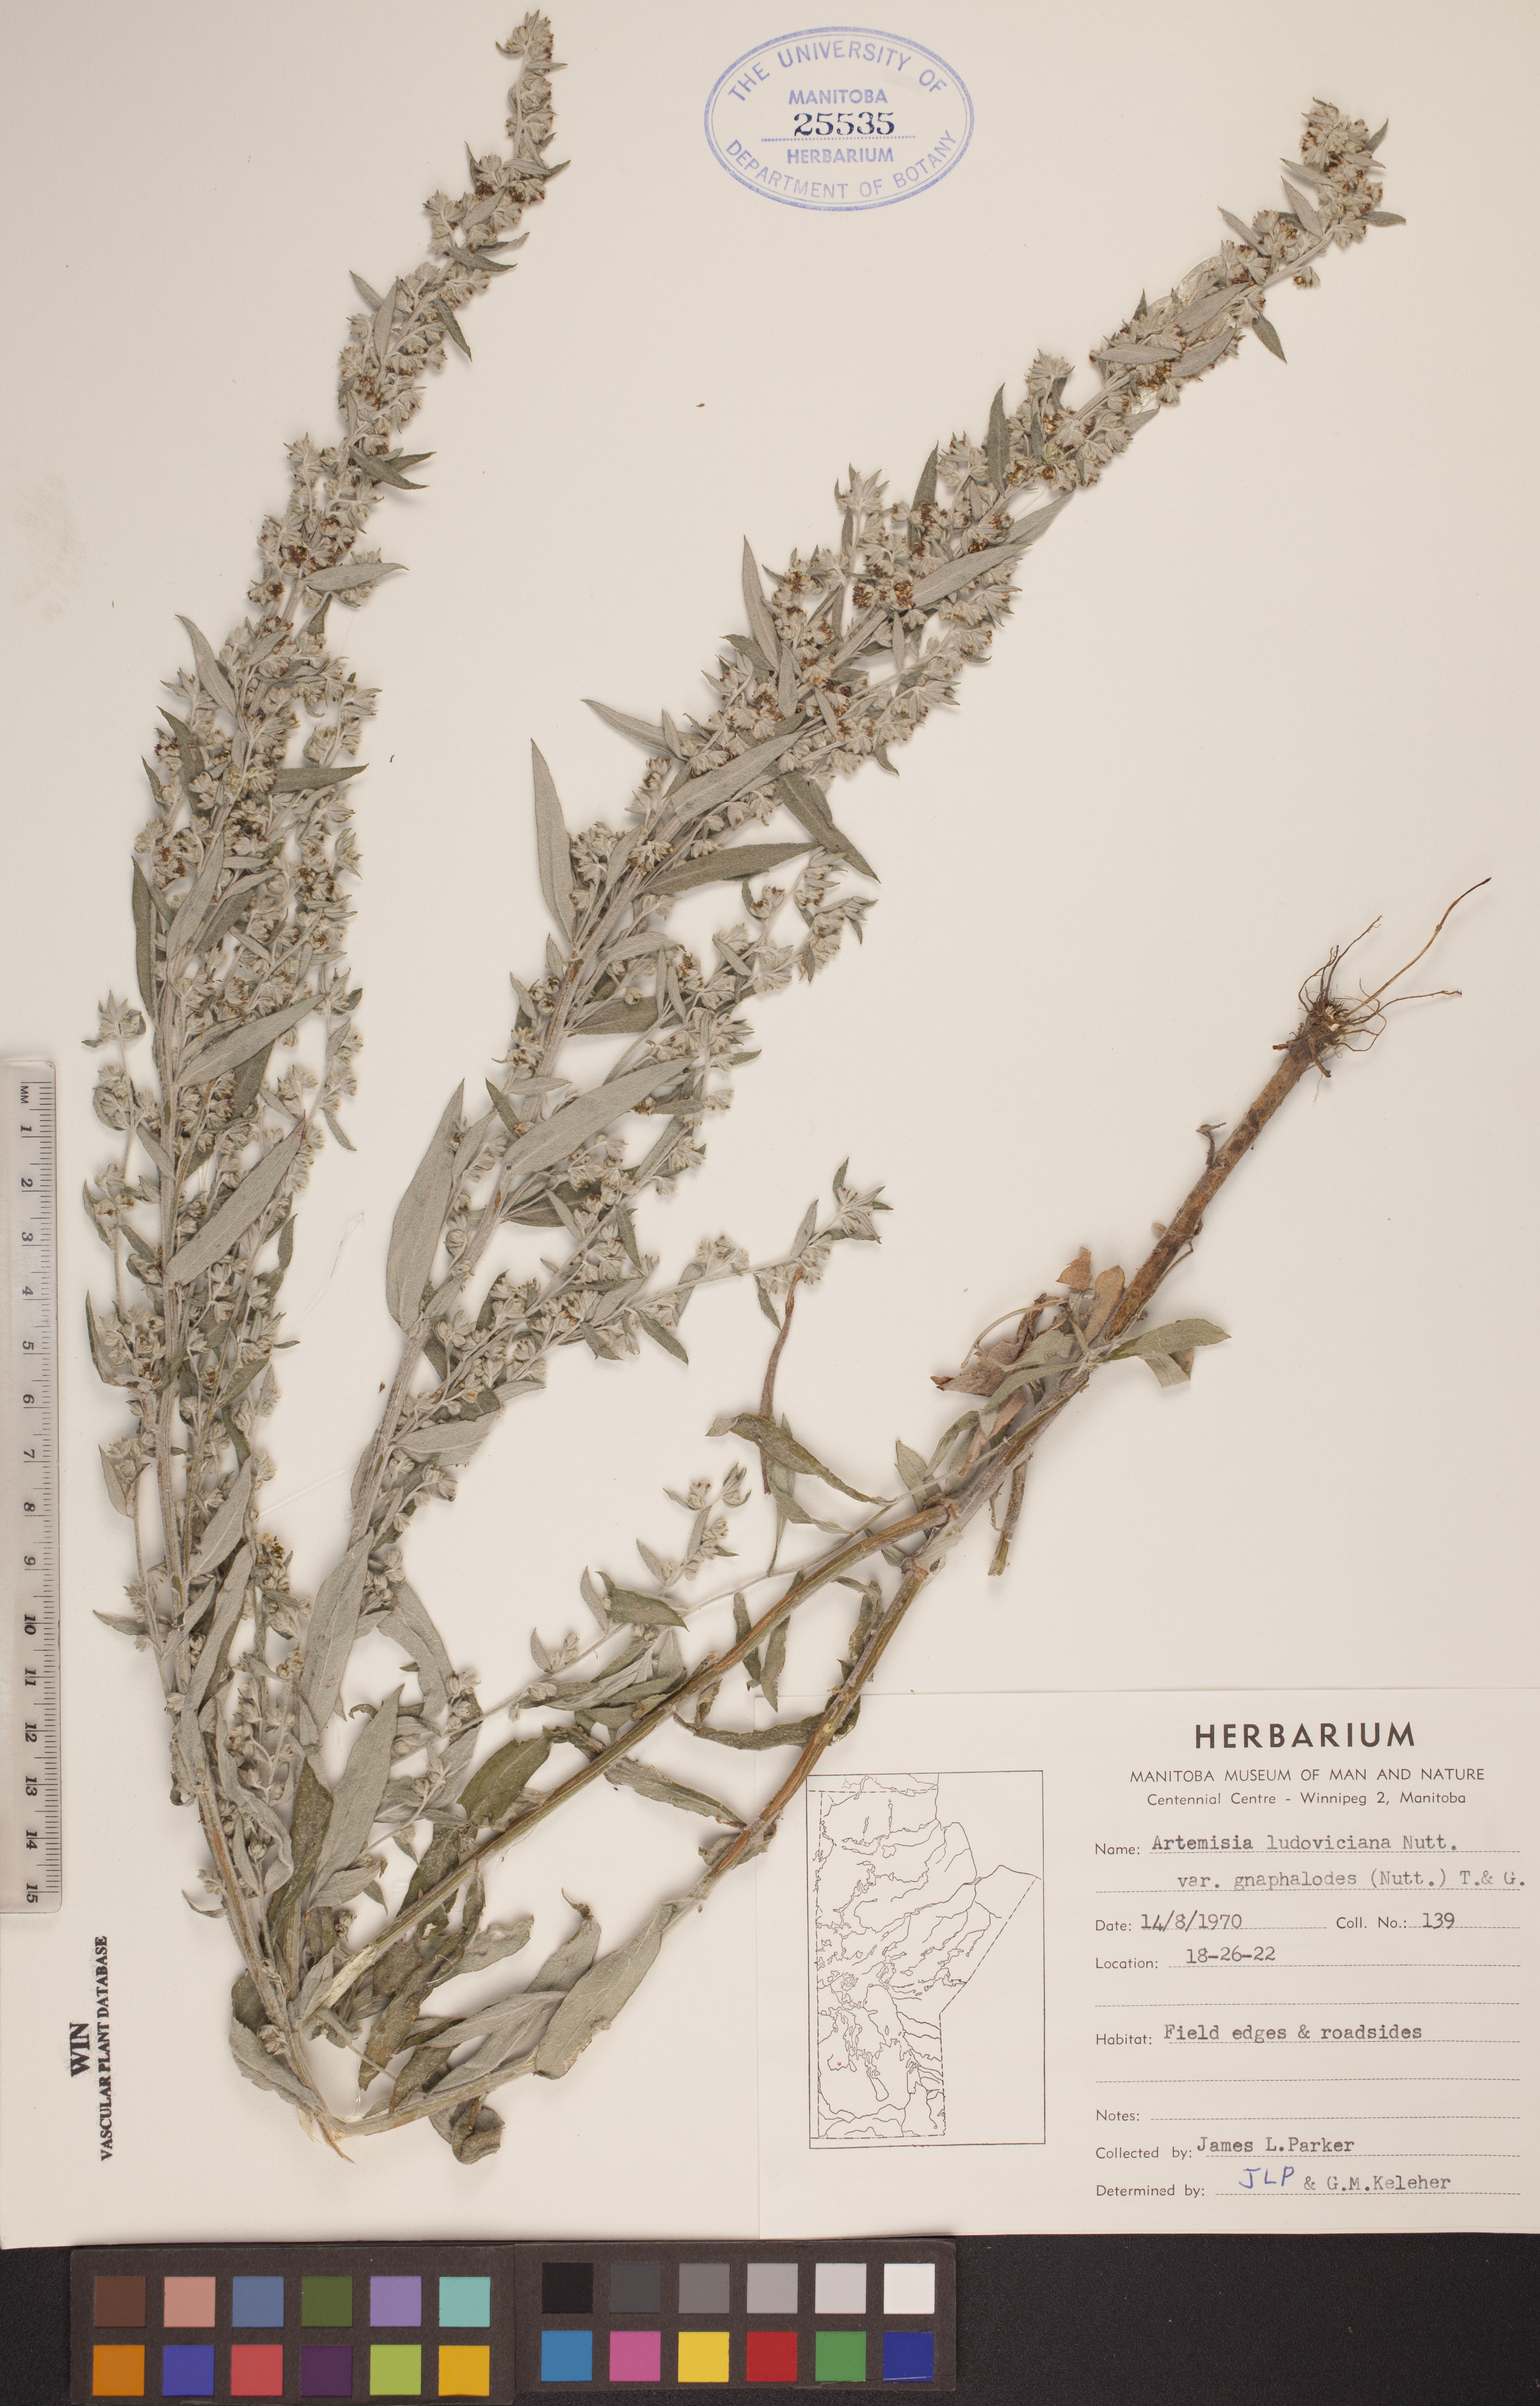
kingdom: Plantae
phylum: Tracheophyta
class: Magnoliopsida
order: Asterales
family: Asteraceae
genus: Artemisia
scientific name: Artemisia ludoviciana
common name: Western mugwort
